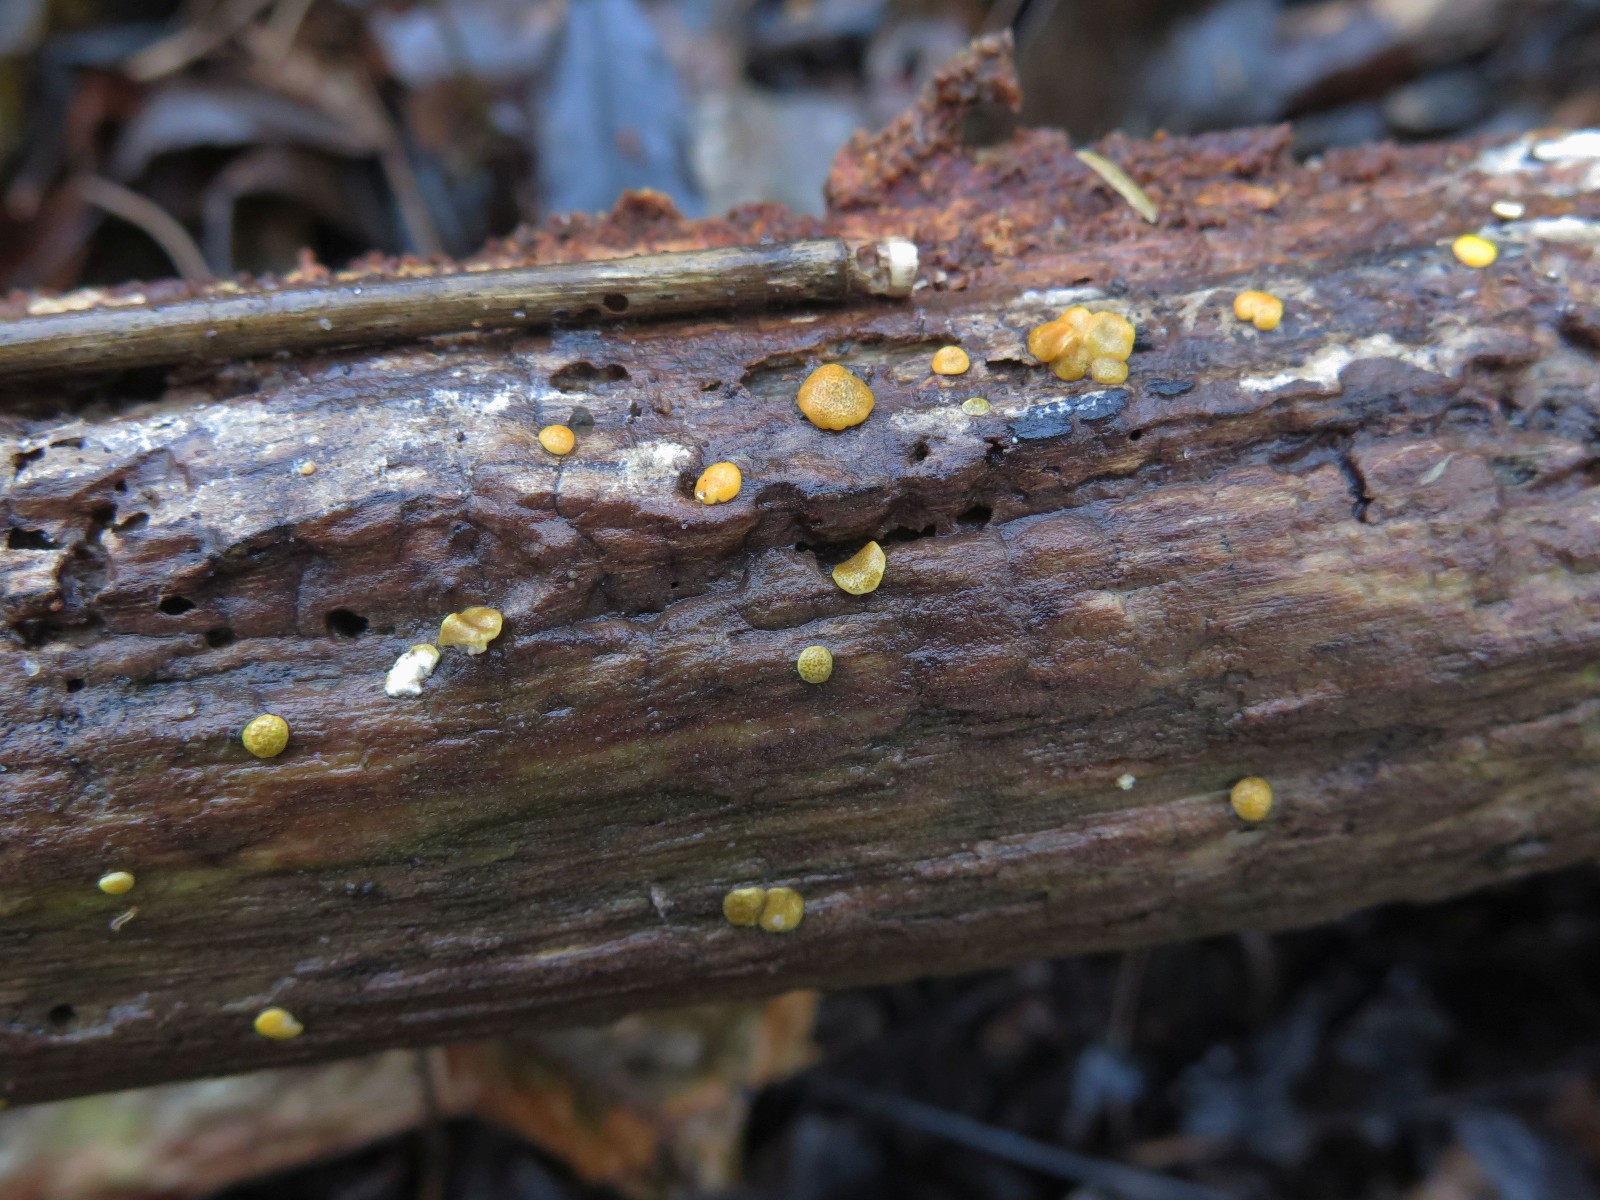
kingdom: Fungi
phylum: Ascomycota
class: Sordariomycetes
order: Hypocreales
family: Hypocreaceae
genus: Trichoderma
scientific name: Trichoderma aureoviride
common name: æggegul kødkerne
